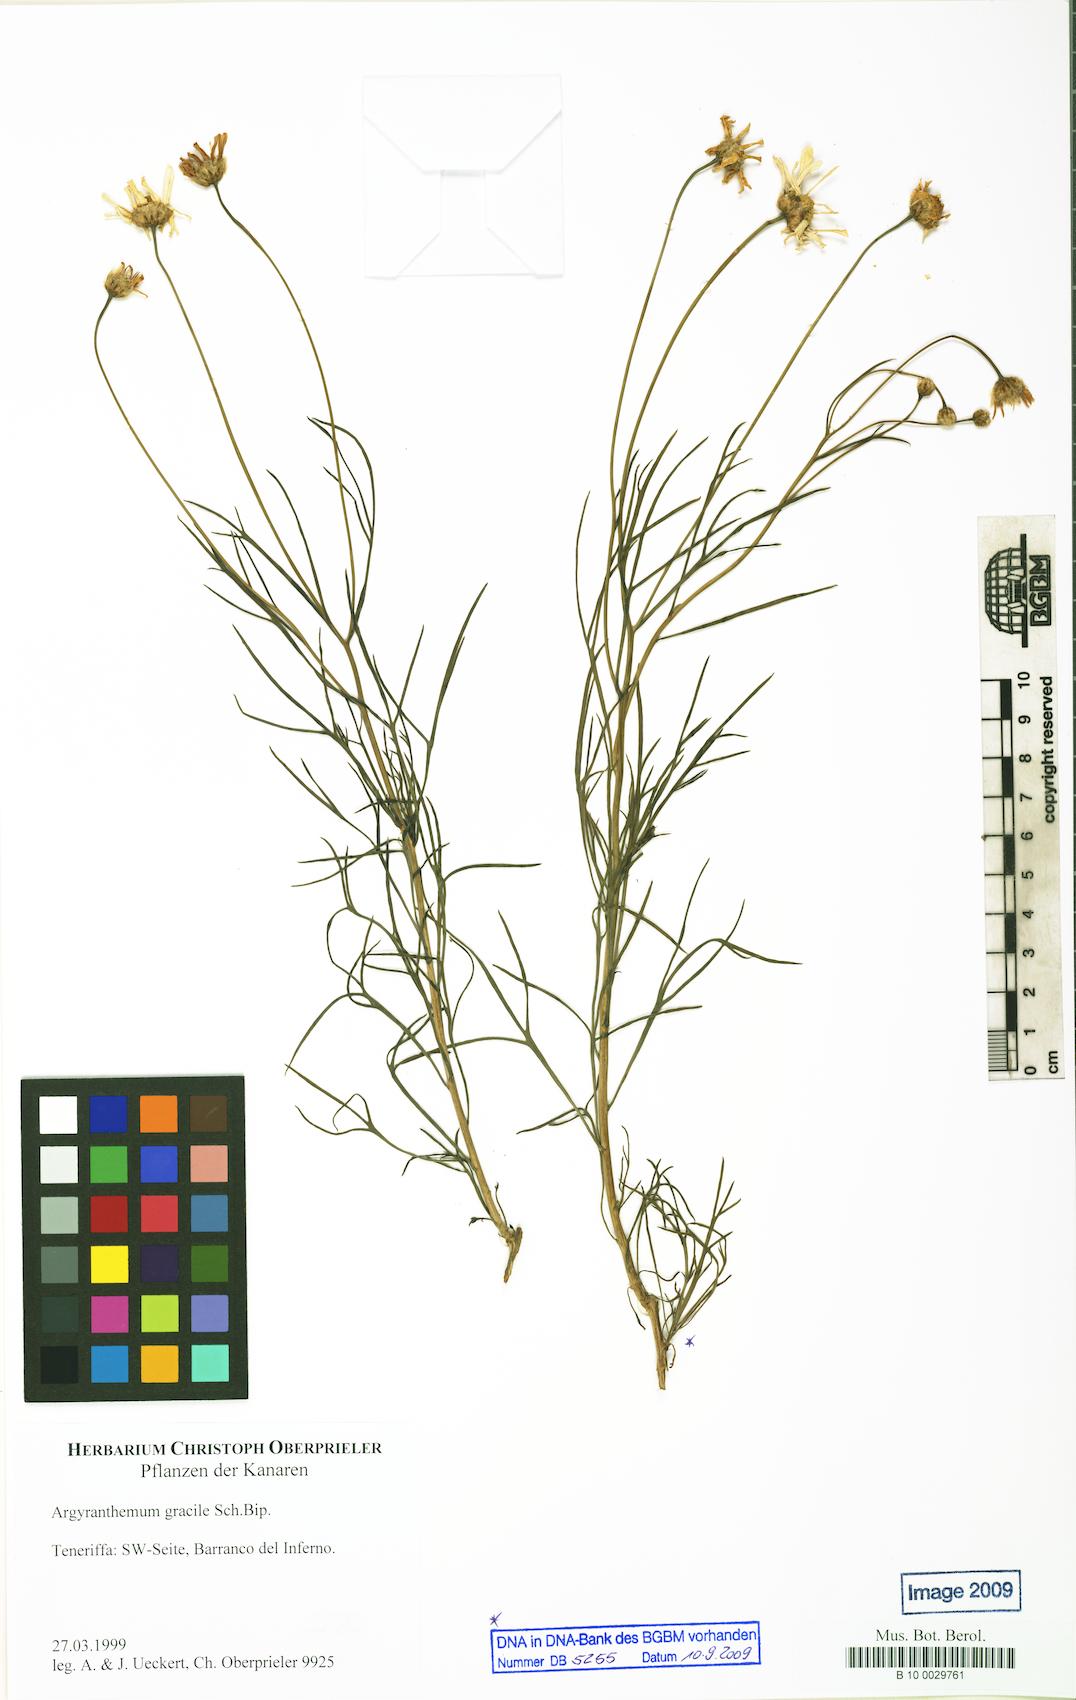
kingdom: Plantae
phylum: Tracheophyta
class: Magnoliopsida
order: Asterales
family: Asteraceae
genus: Argyranthemum
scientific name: Argyranthemum gracile
